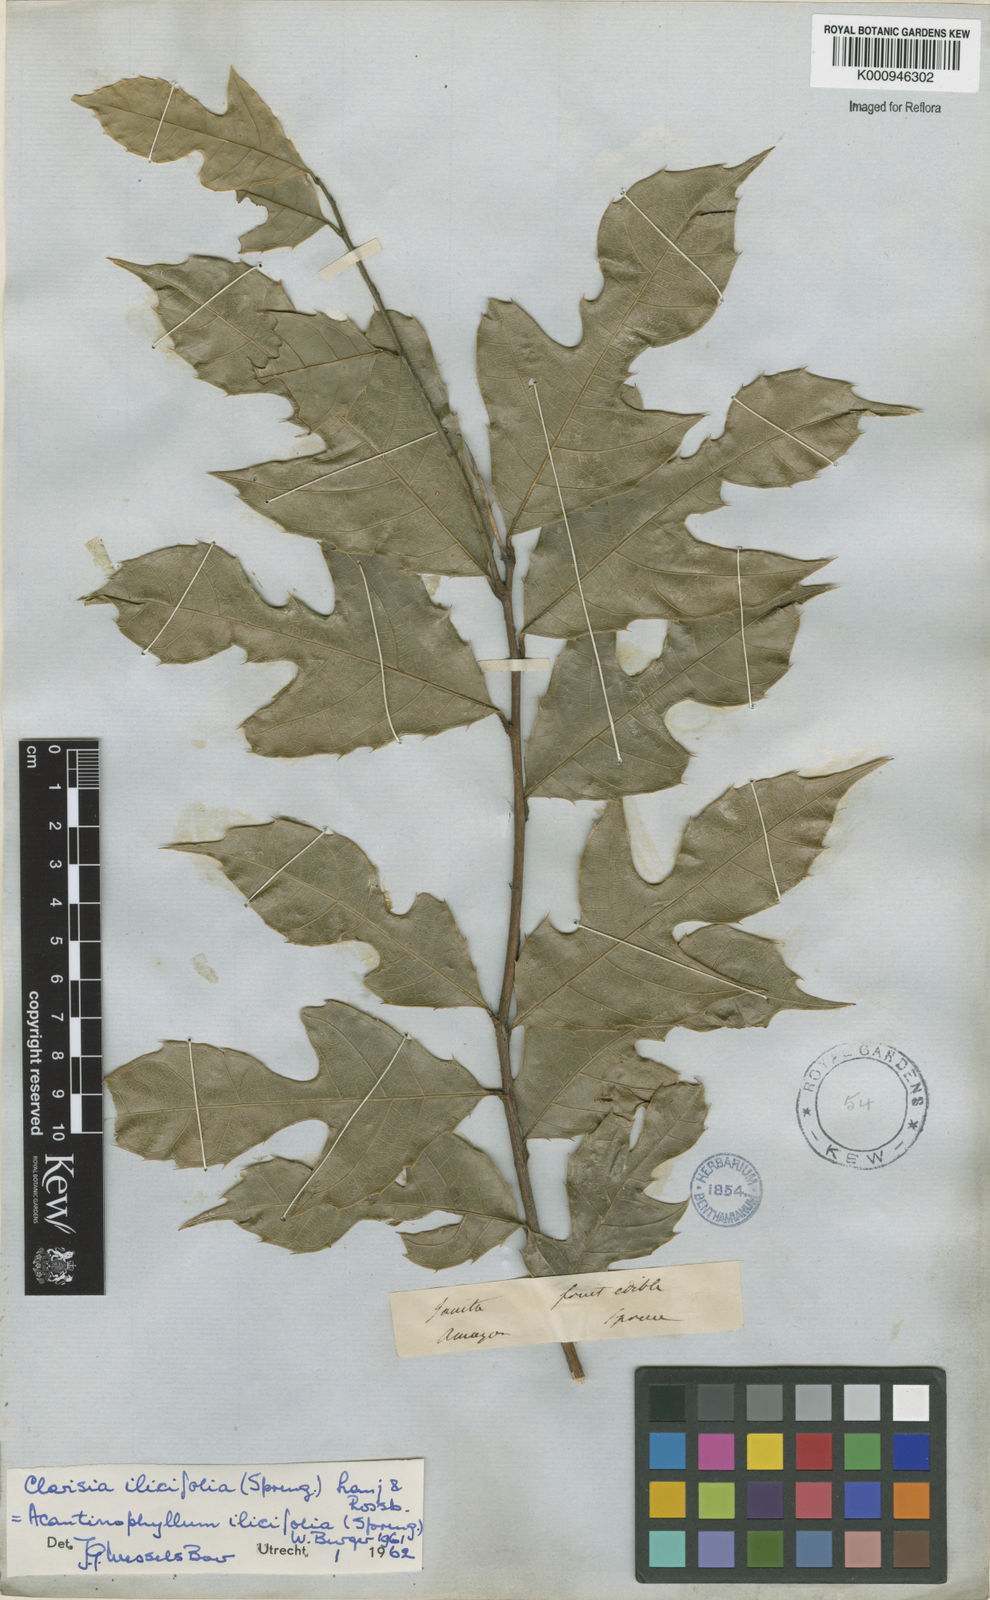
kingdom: Plantae
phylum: Tracheophyta
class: Magnoliopsida
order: Rosales
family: Moraceae
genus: Clarisia
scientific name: Clarisia ilicifolia
